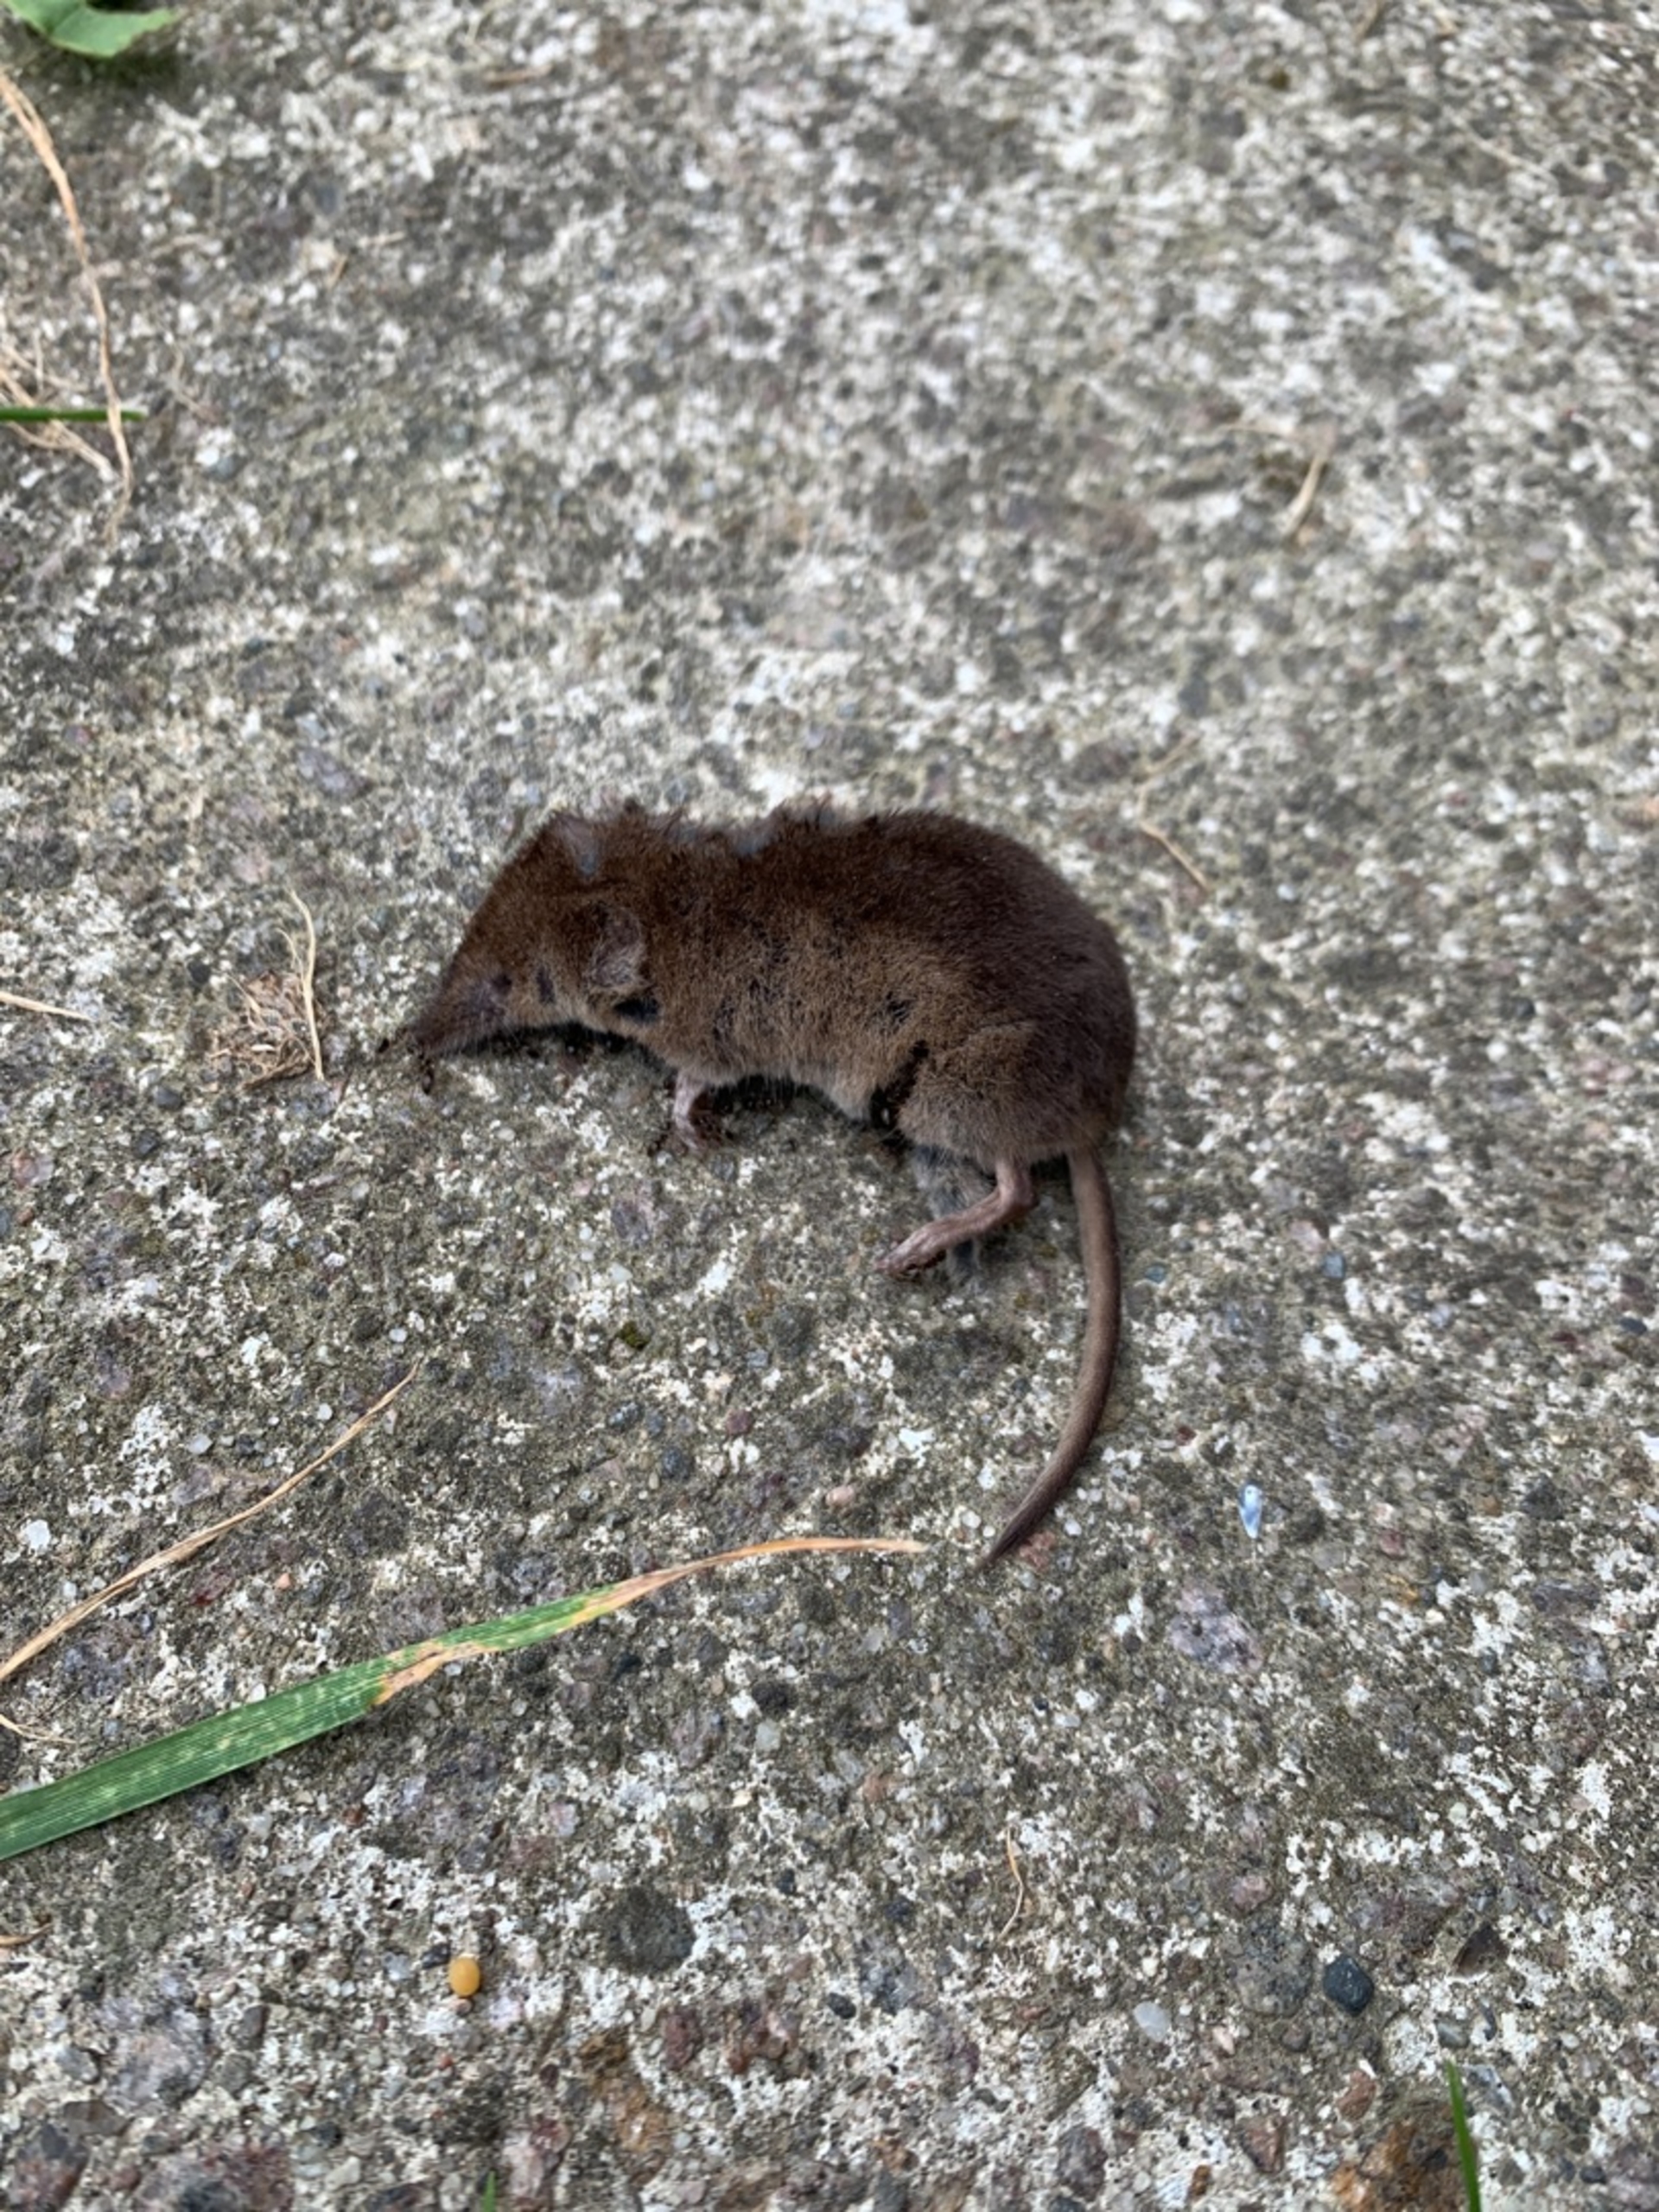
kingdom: Animalia
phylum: Chordata
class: Mammalia
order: Soricomorpha
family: Soricidae
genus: Sorex
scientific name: Sorex araneus
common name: Almindelig spidsmus
